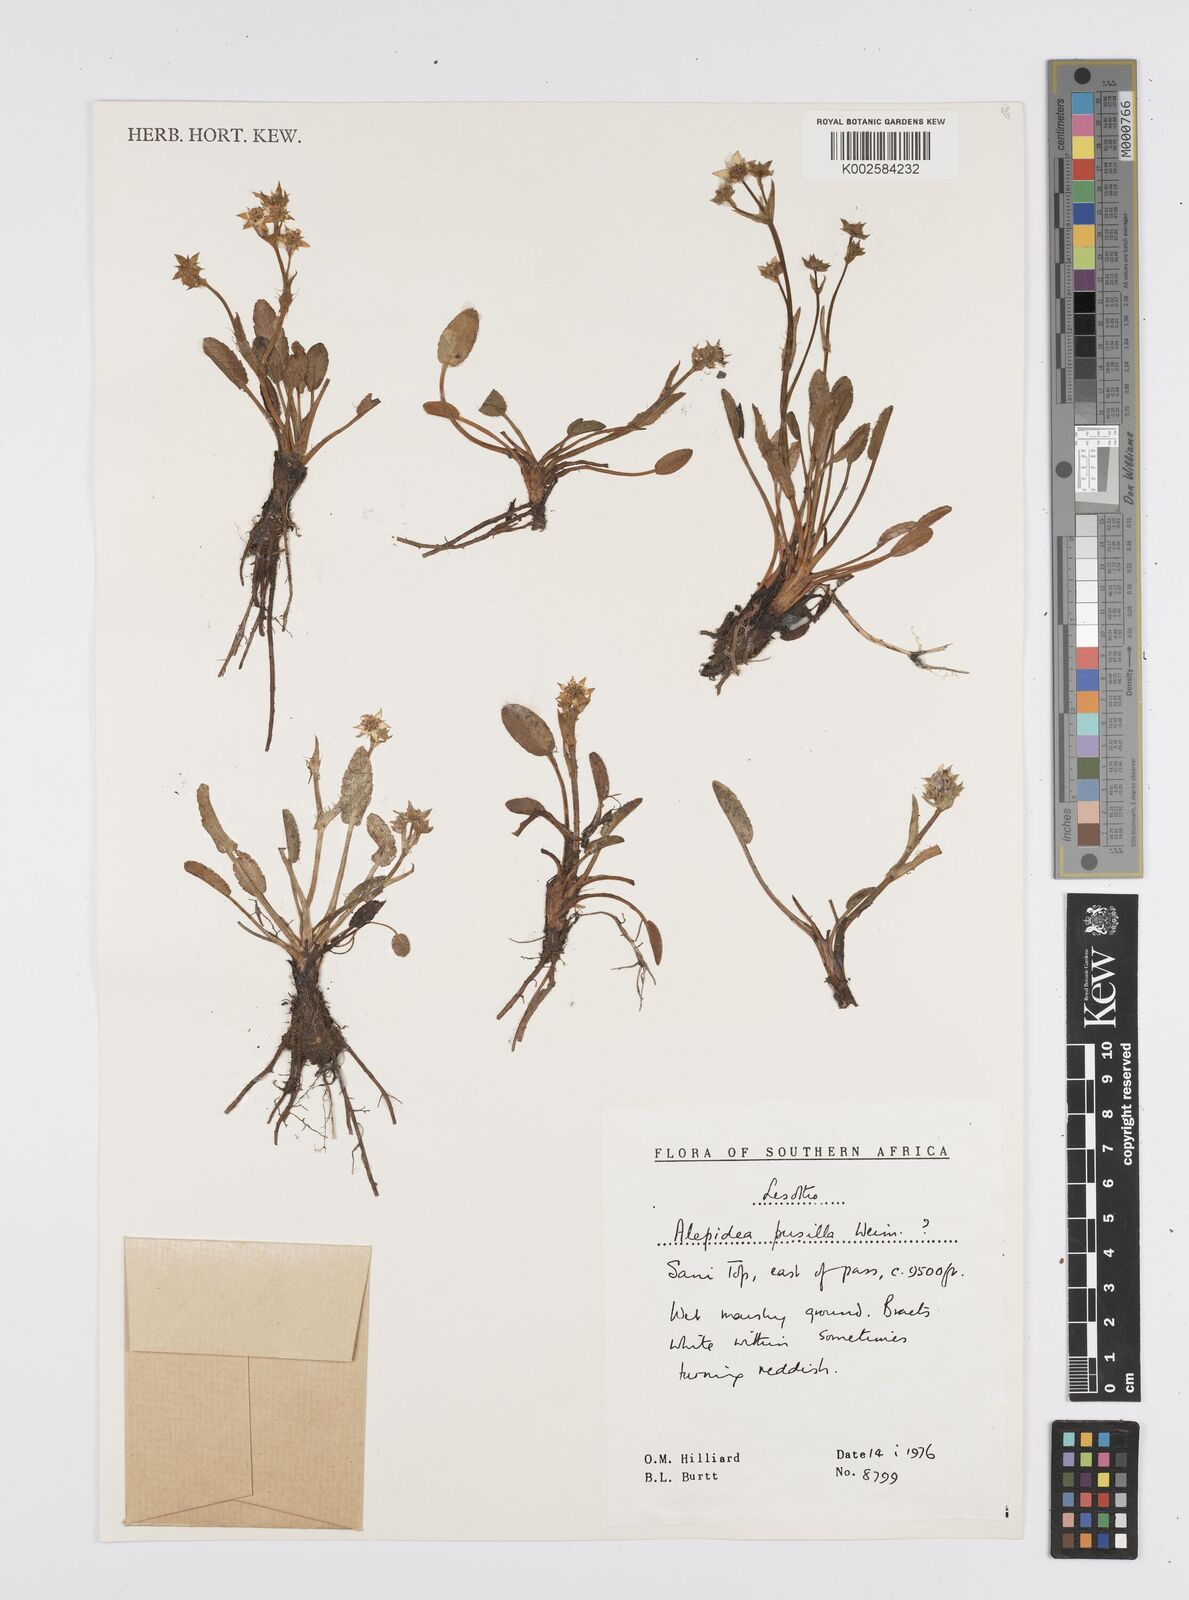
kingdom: Plantae
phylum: Tracheophyta
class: Magnoliopsida
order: Apiales
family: Apiaceae
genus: Alepidea
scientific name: Alepidea pusilla
